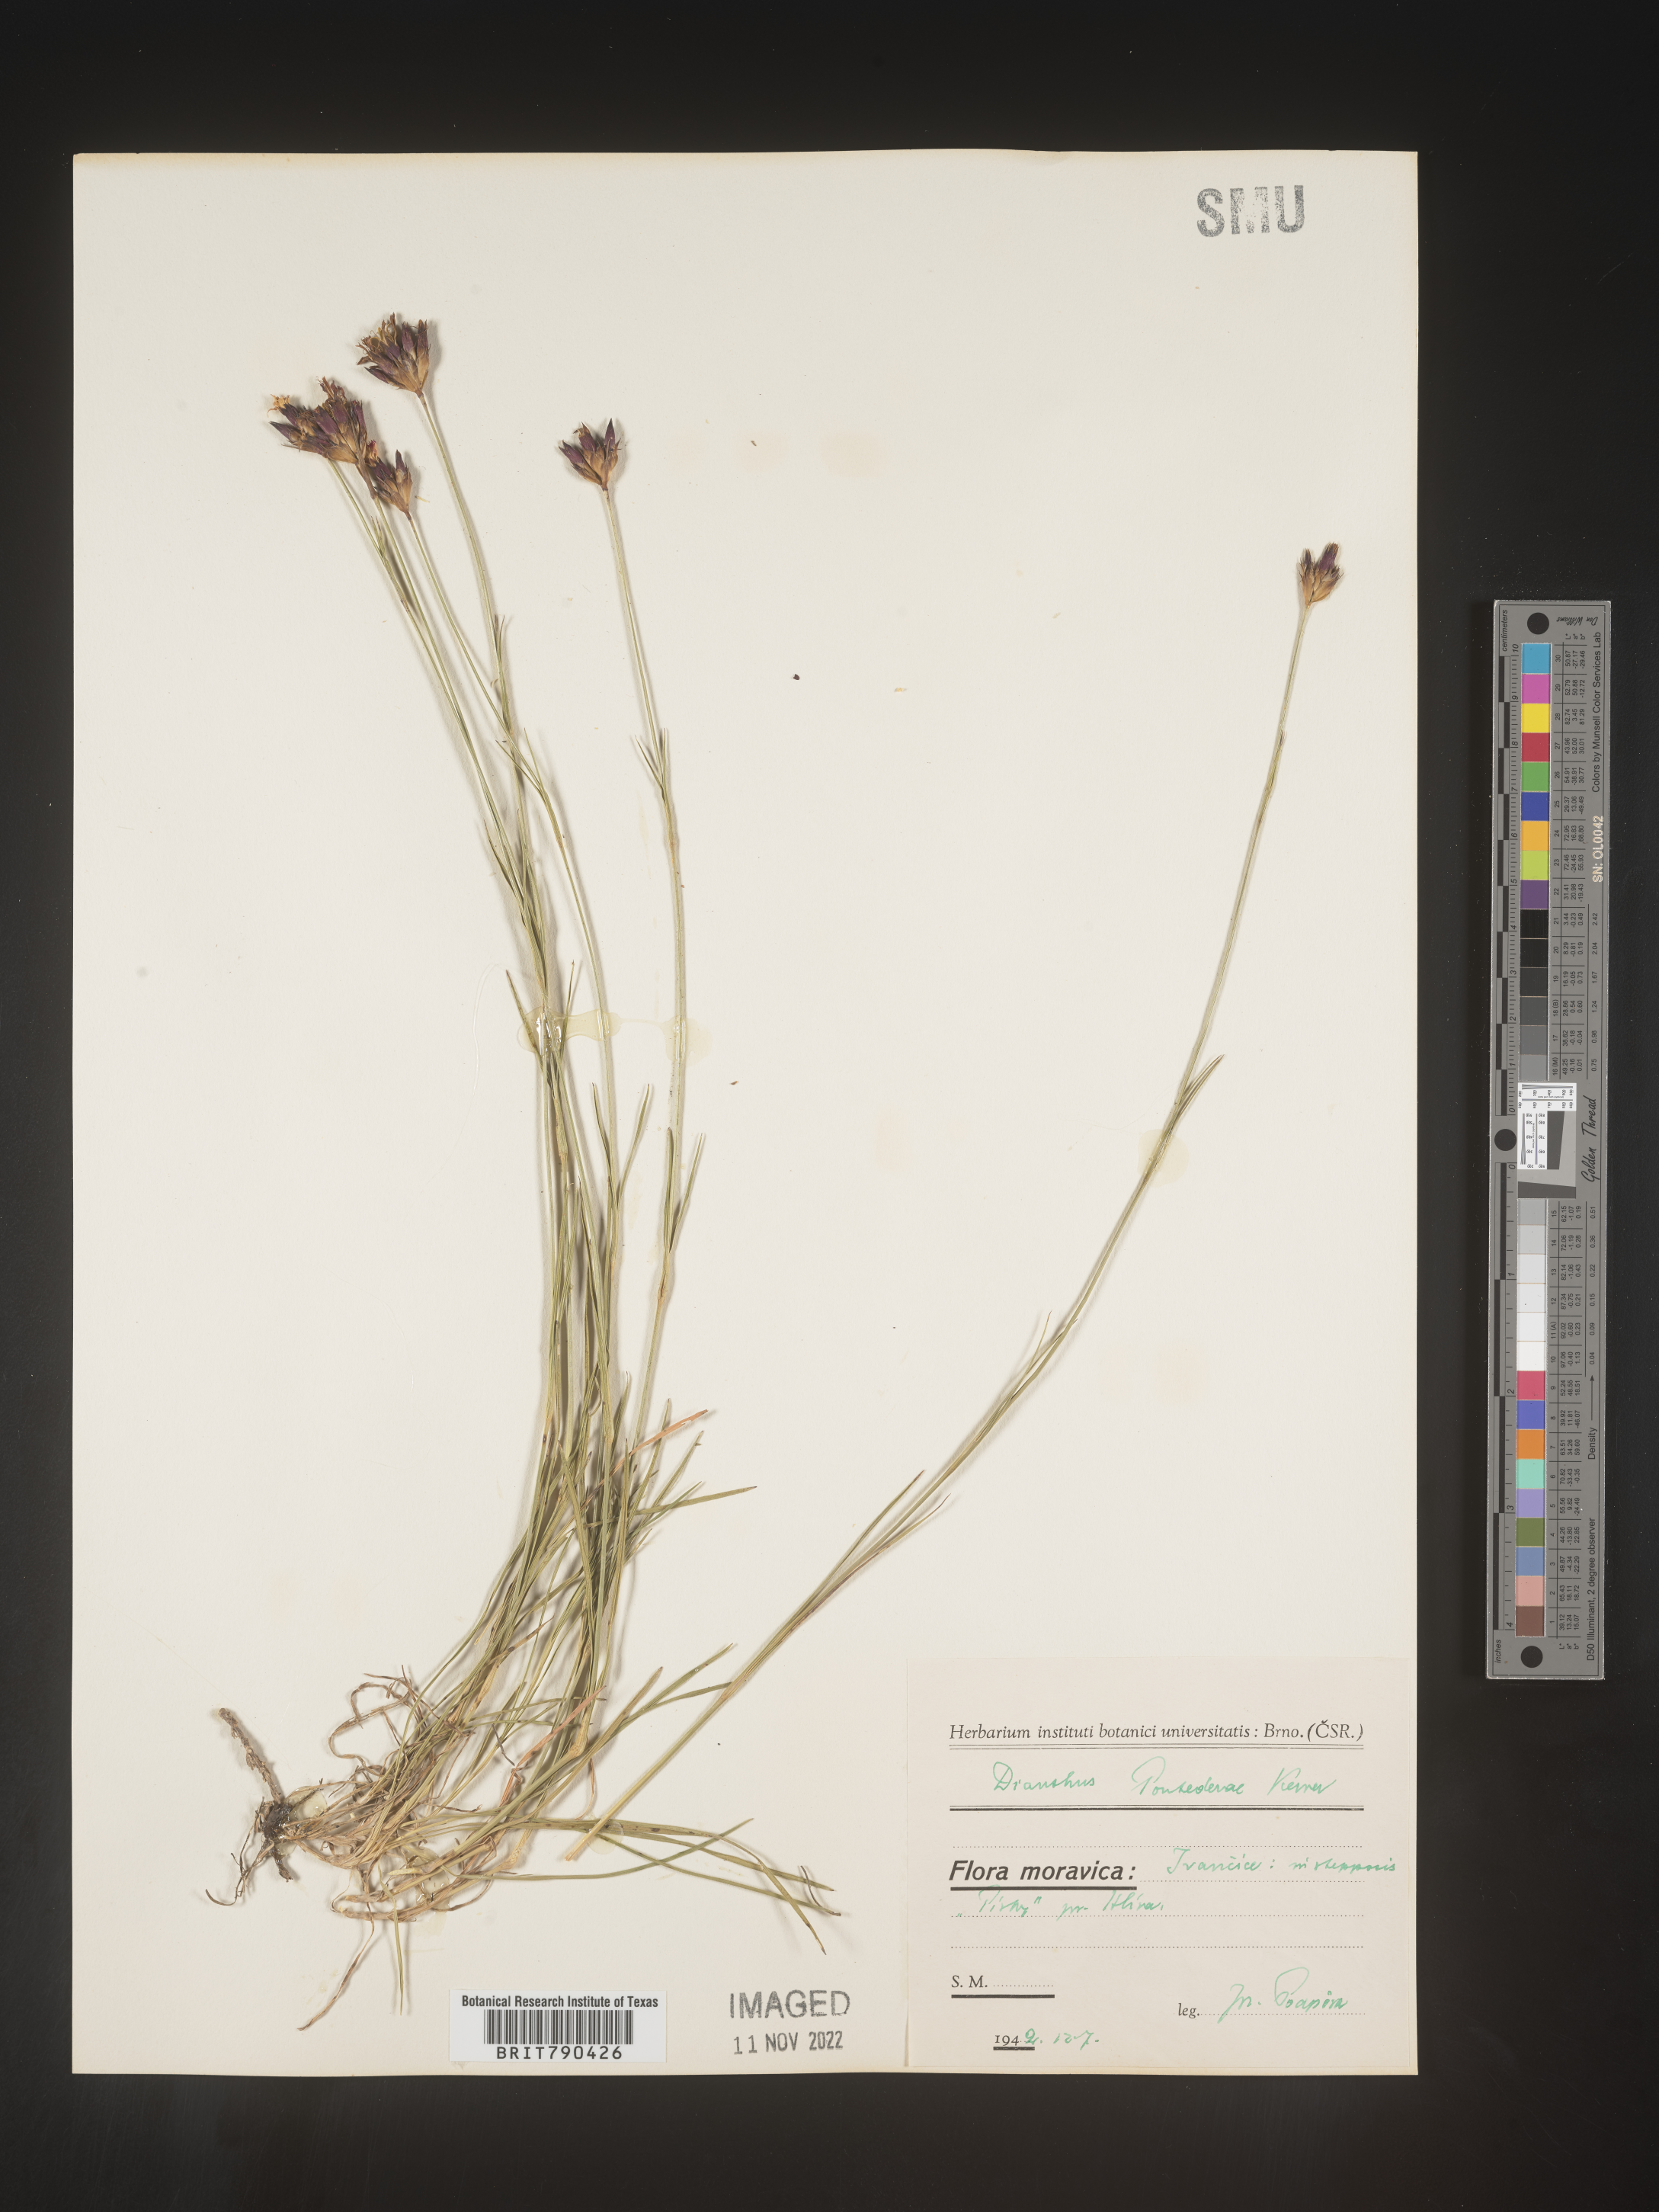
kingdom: Plantae
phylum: Tracheophyta
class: Magnoliopsida
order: Caryophyllales
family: Caryophyllaceae
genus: Dianthus
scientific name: Dianthus
